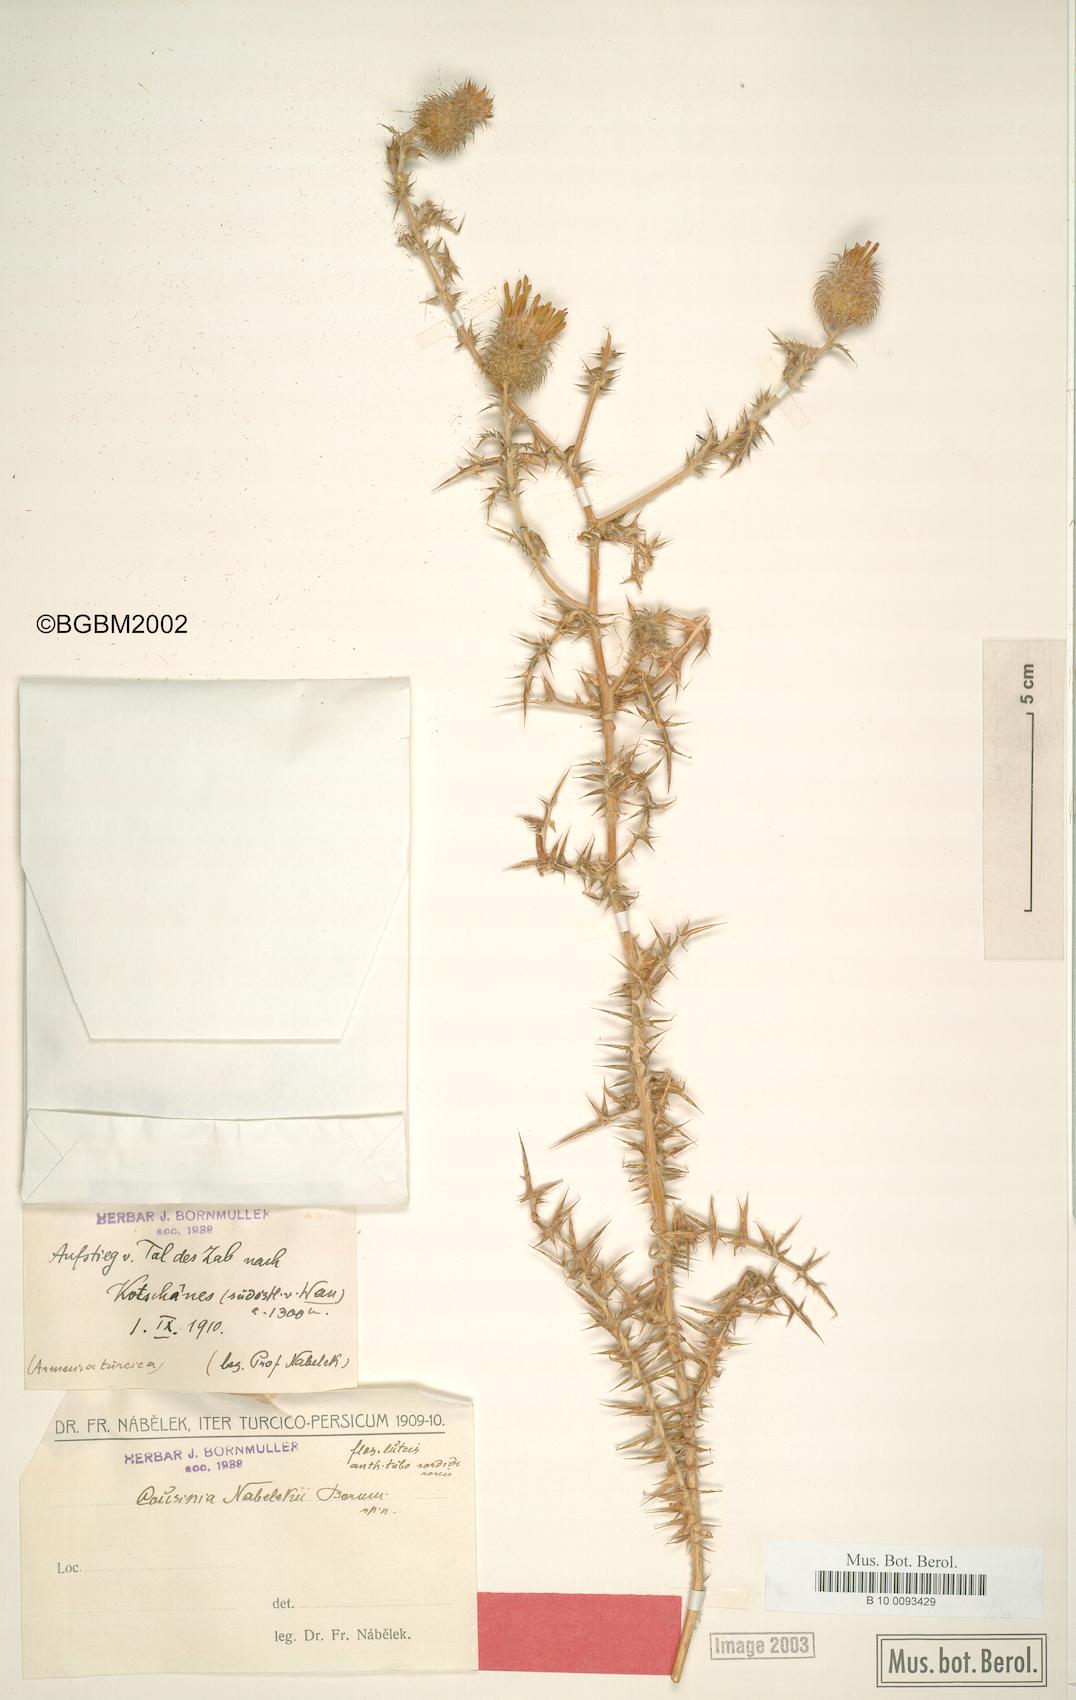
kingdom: Plantae
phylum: Tracheophyta
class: Magnoliopsida
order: Asterales
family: Asteraceae
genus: Cousinia
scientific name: Cousinia nabelekii
